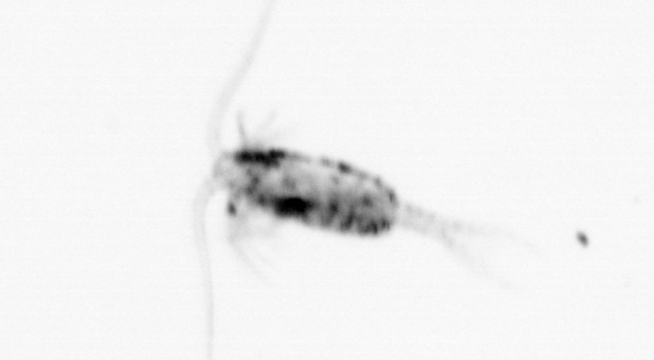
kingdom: Animalia
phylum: Arthropoda
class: Copepoda
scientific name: Copepoda
